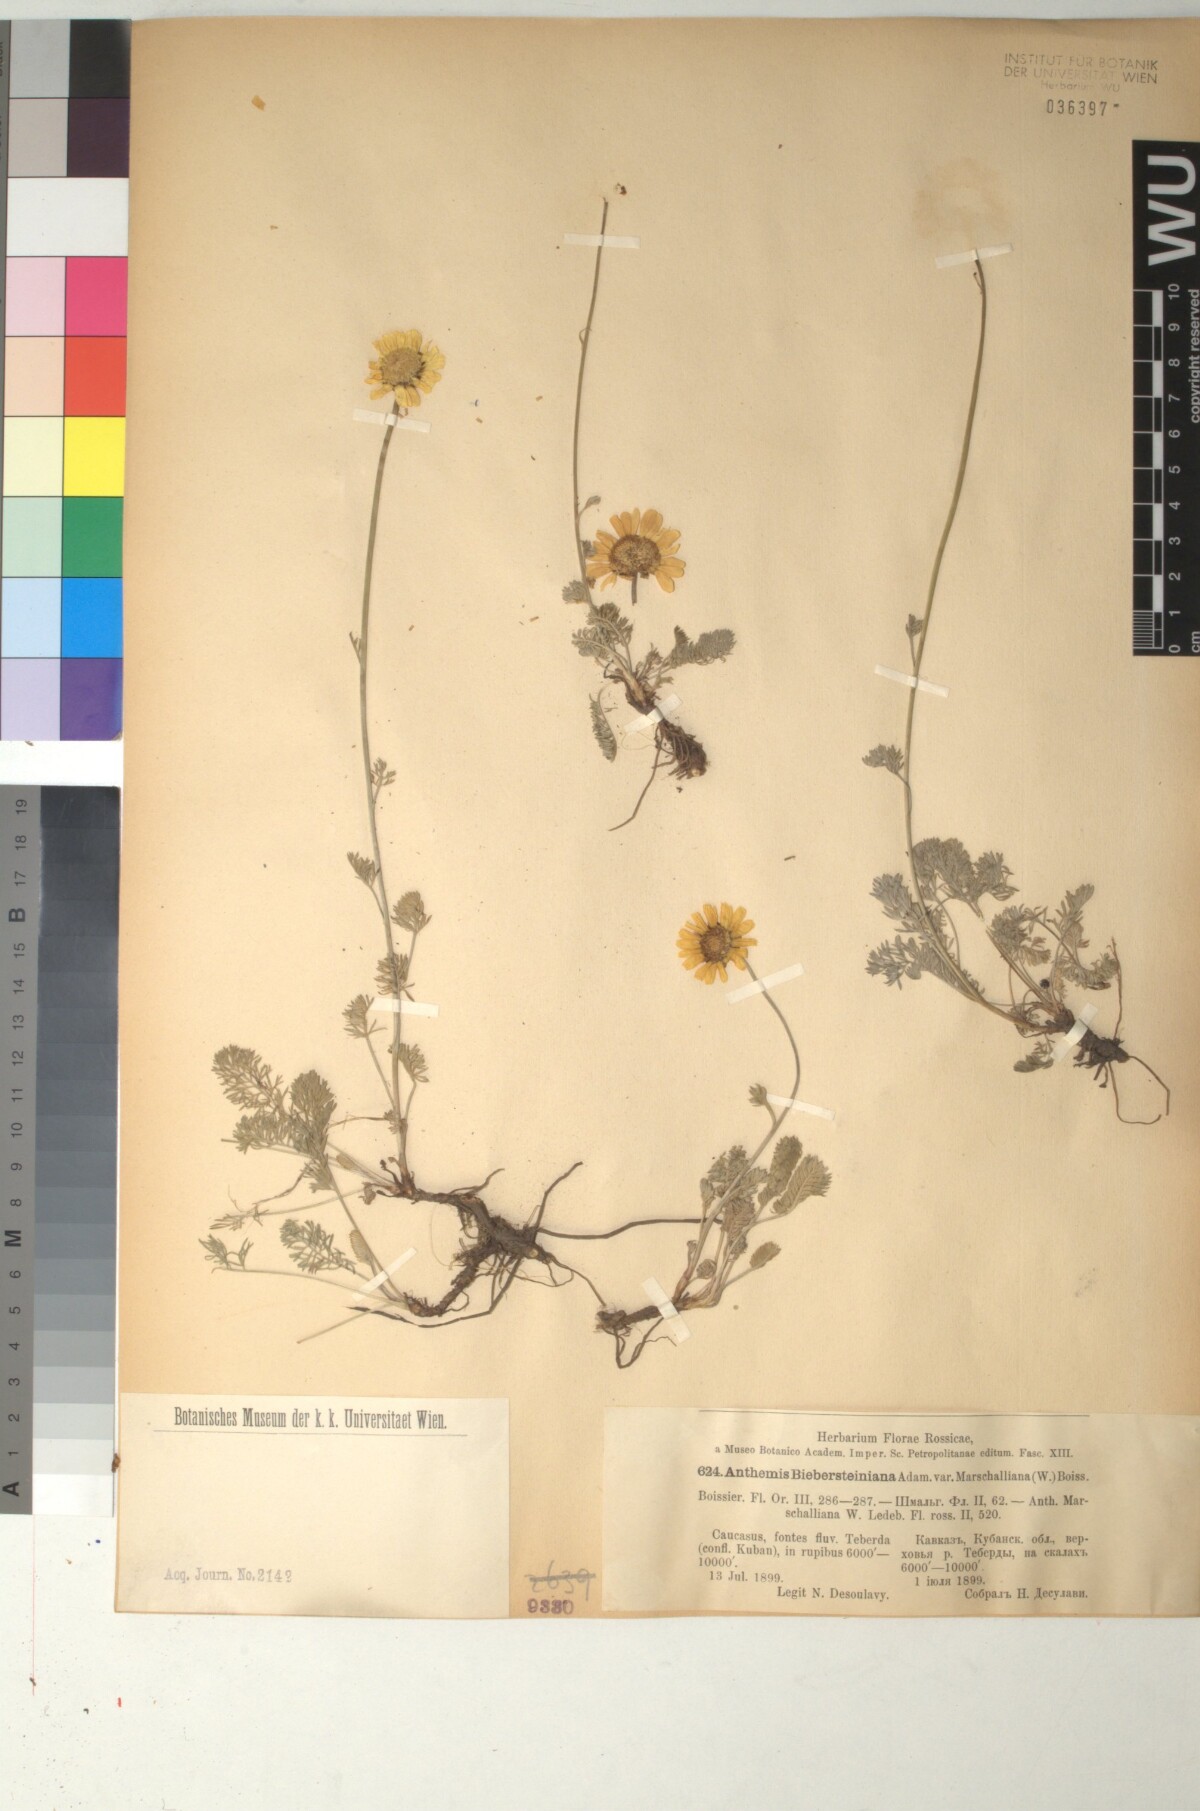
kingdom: Plantae
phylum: Tracheophyta
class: Magnoliopsida
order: Asterales
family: Asteraceae
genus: Archanthemis
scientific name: Archanthemis marschalliana
